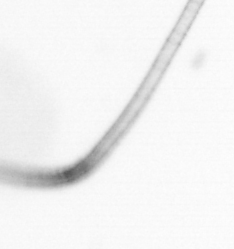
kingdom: Chromista
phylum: Ochrophyta
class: Bacillariophyceae
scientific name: Bacillariophyceae
